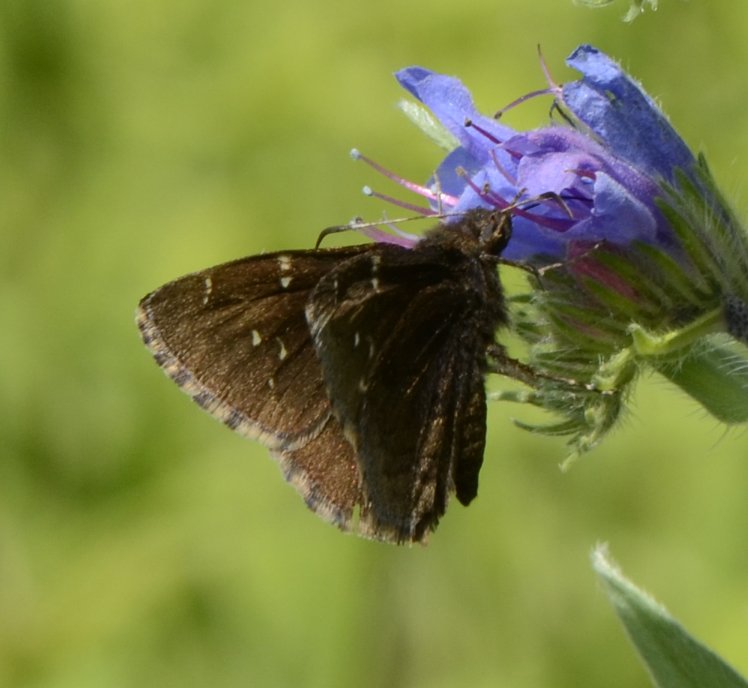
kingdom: Animalia
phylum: Arthropoda
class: Insecta
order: Lepidoptera
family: Hesperiidae
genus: Autochton
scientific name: Autochton
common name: Northern Cloudywing
